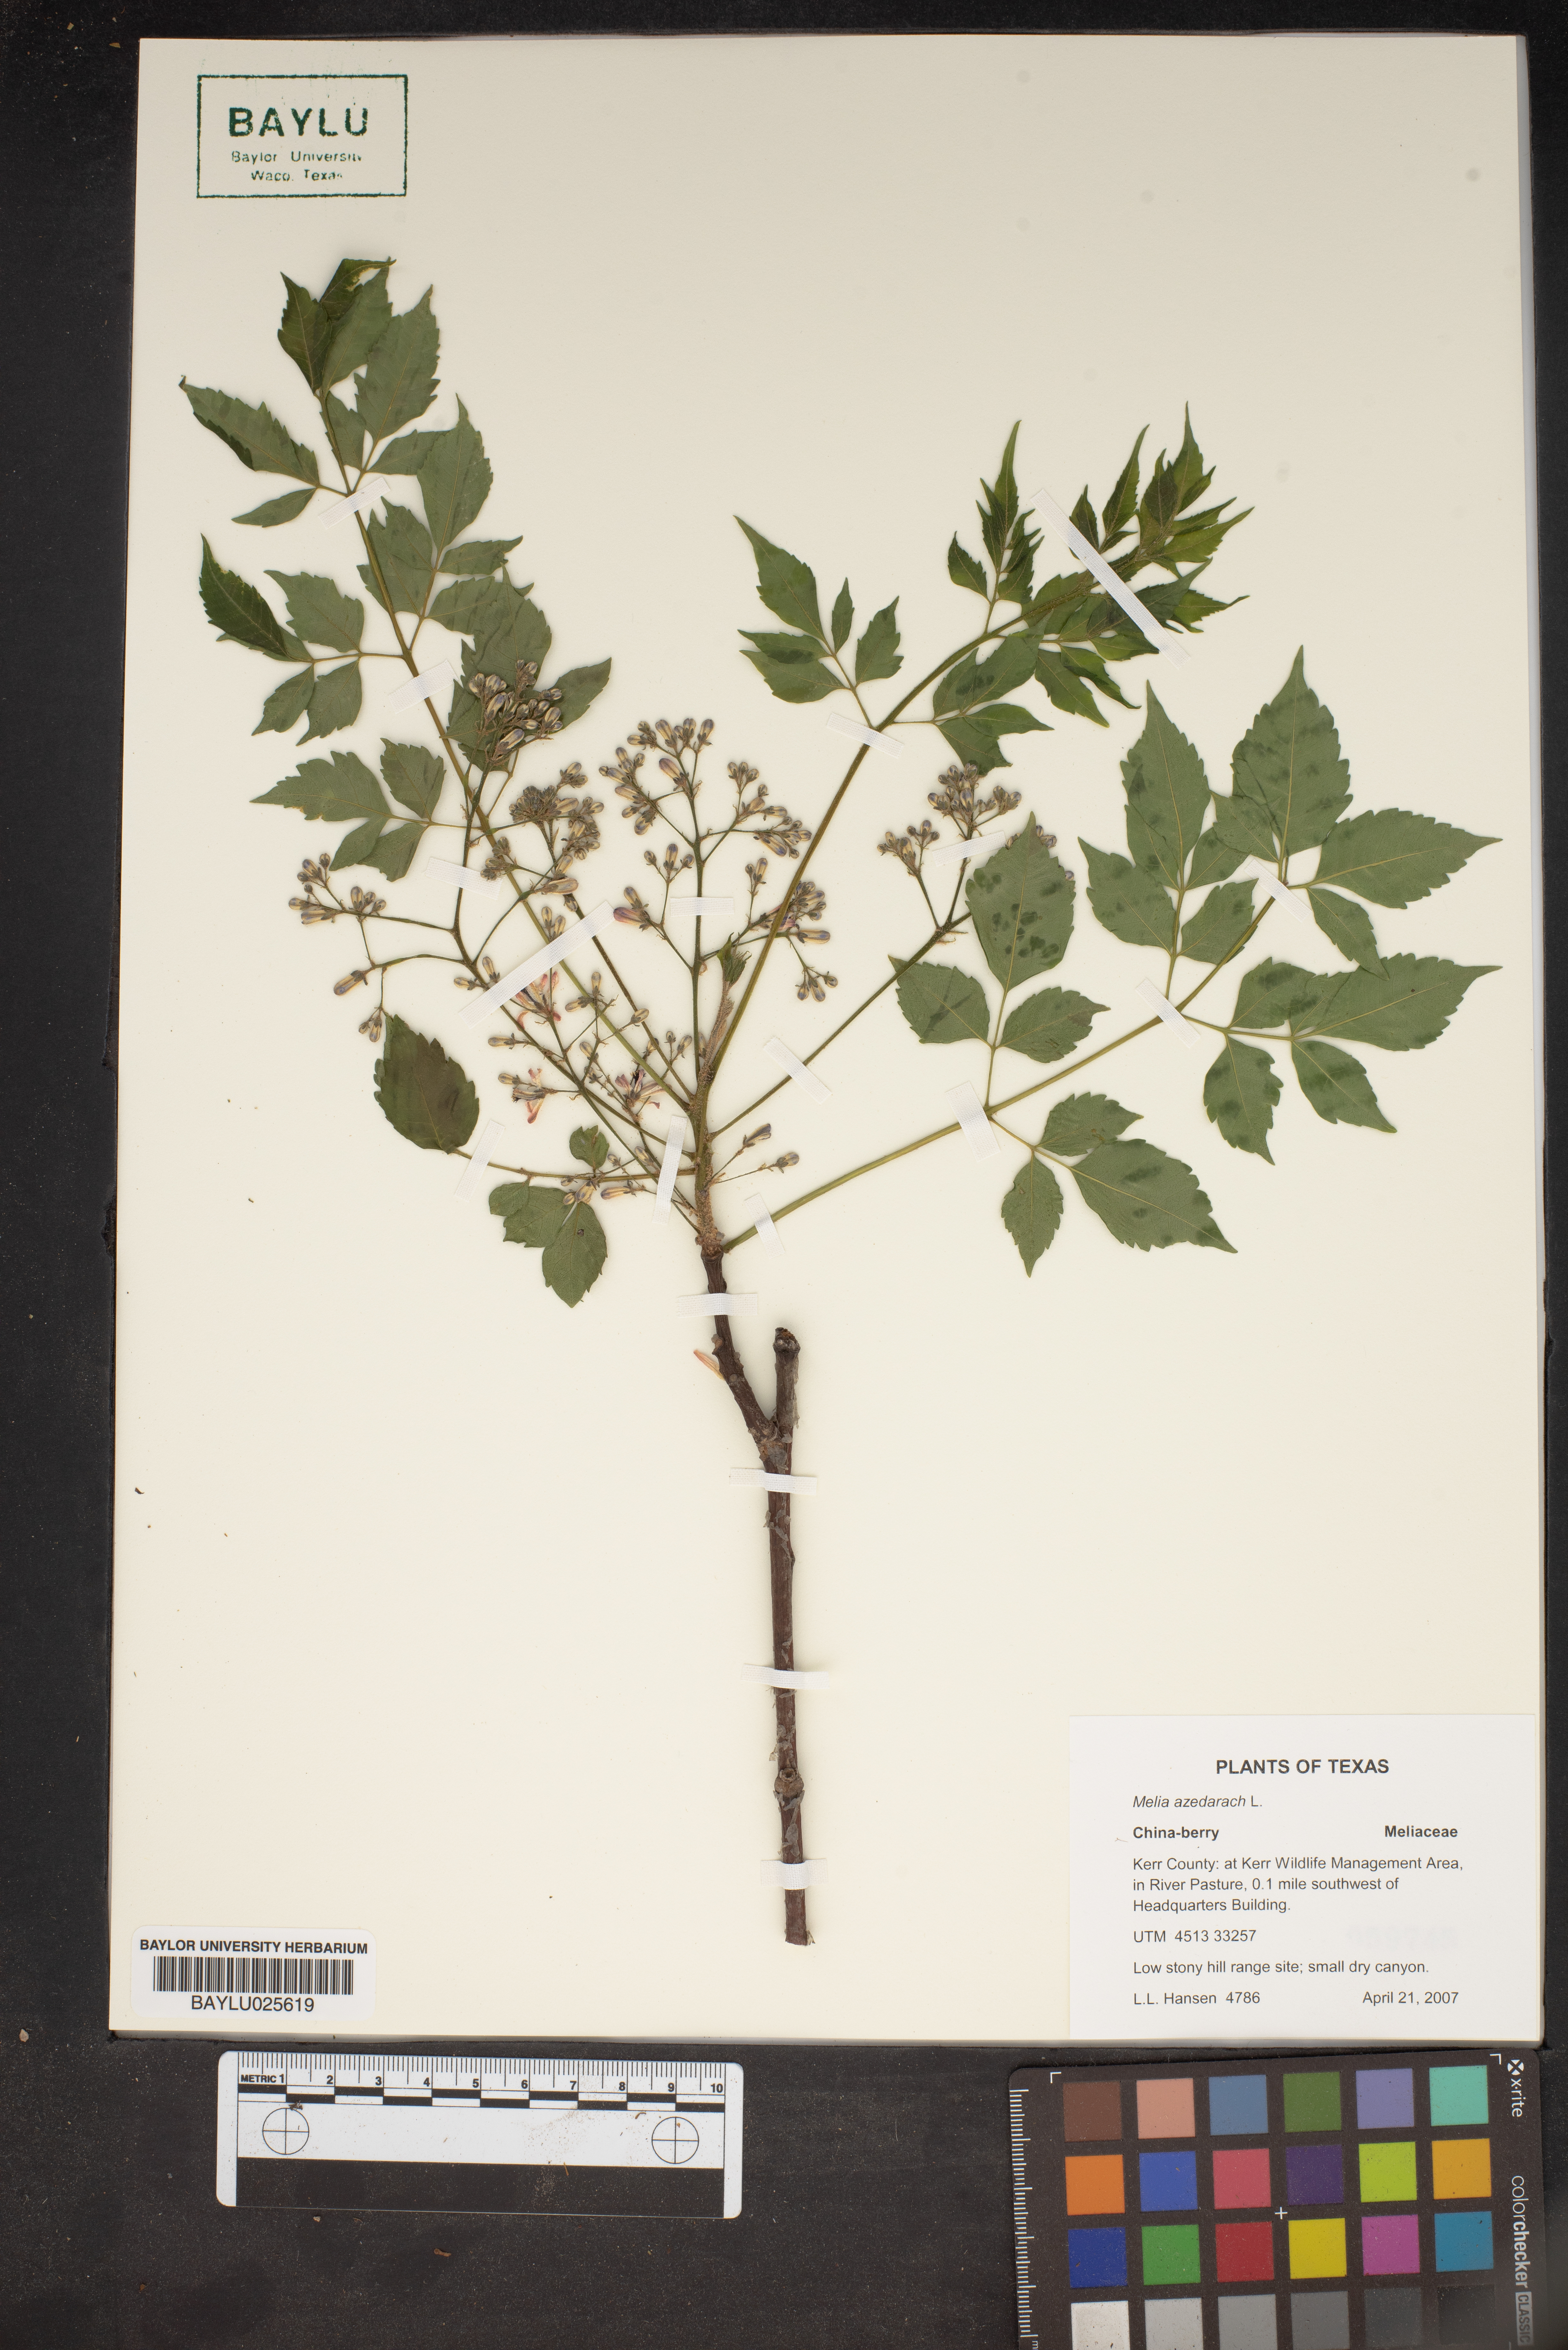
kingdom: Plantae
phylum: Tracheophyta
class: Magnoliopsida
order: Sapindales
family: Meliaceae
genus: Melia
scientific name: Melia azedarach
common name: Chinaberrytree
